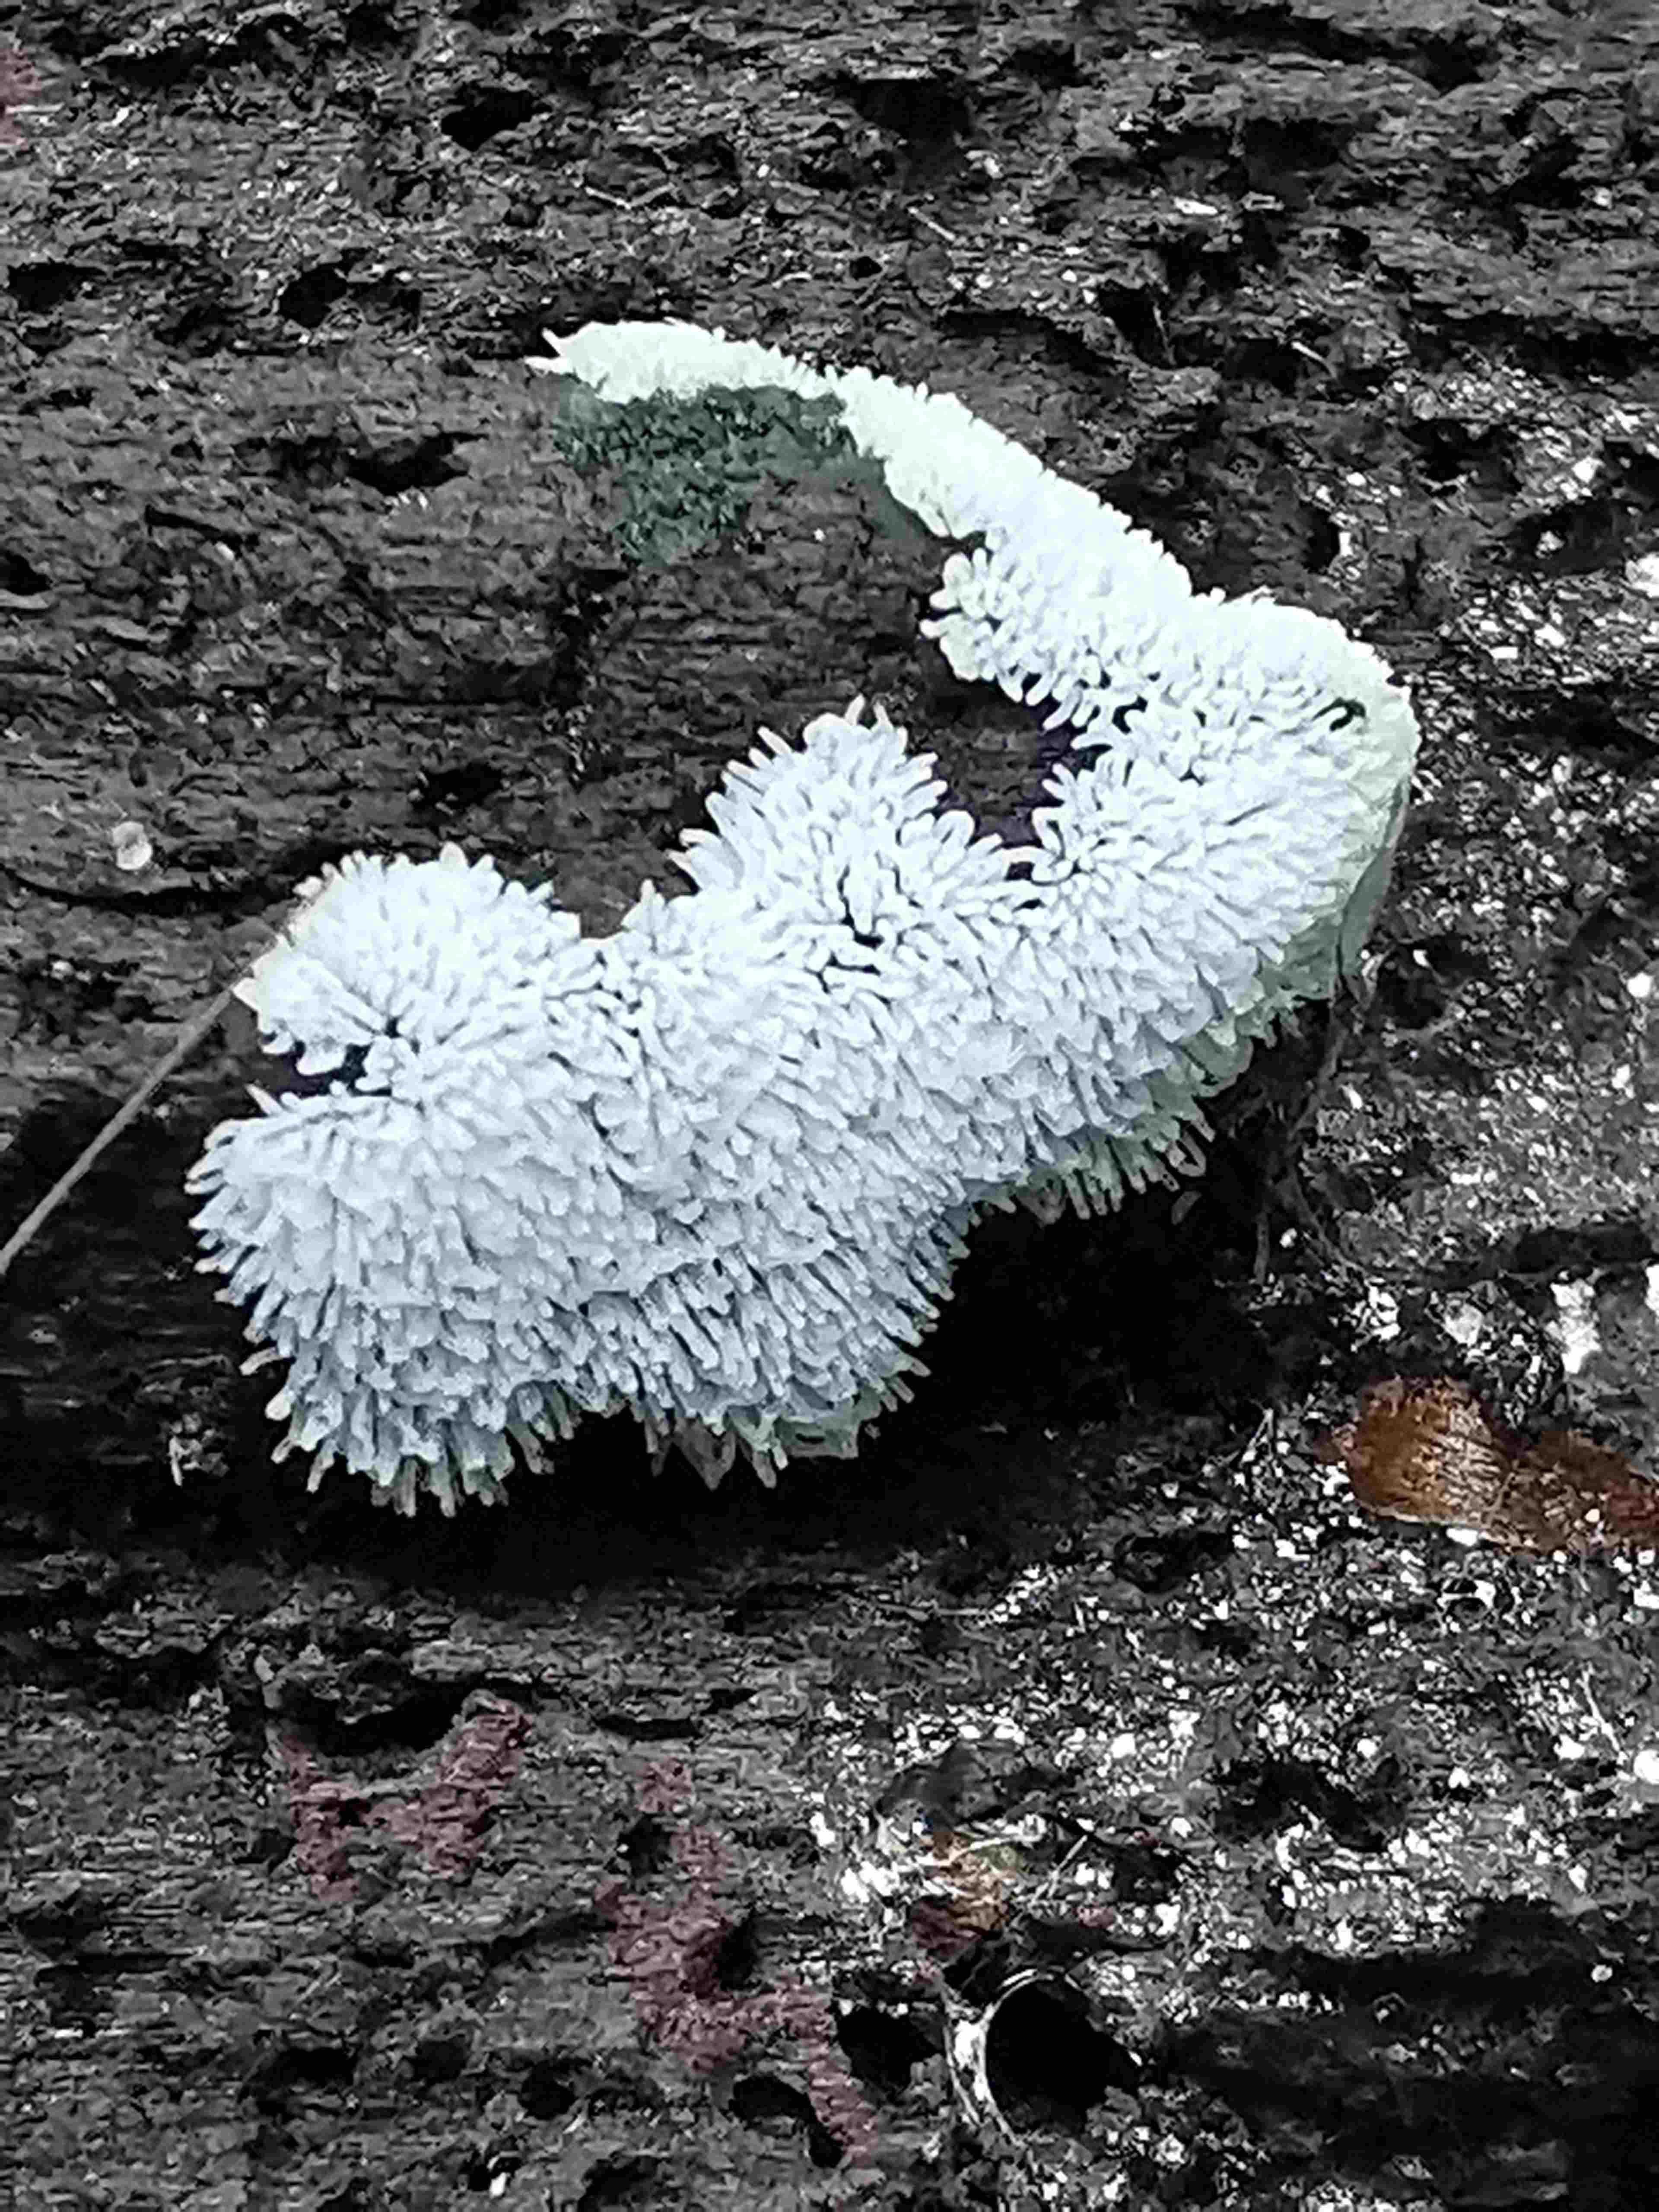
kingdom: Protozoa
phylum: Mycetozoa
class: Protosteliomycetes
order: Ceratiomyxales
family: Ceratiomyxaceae
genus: Ceratiomyxa
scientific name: Ceratiomyxa fruticulosa
